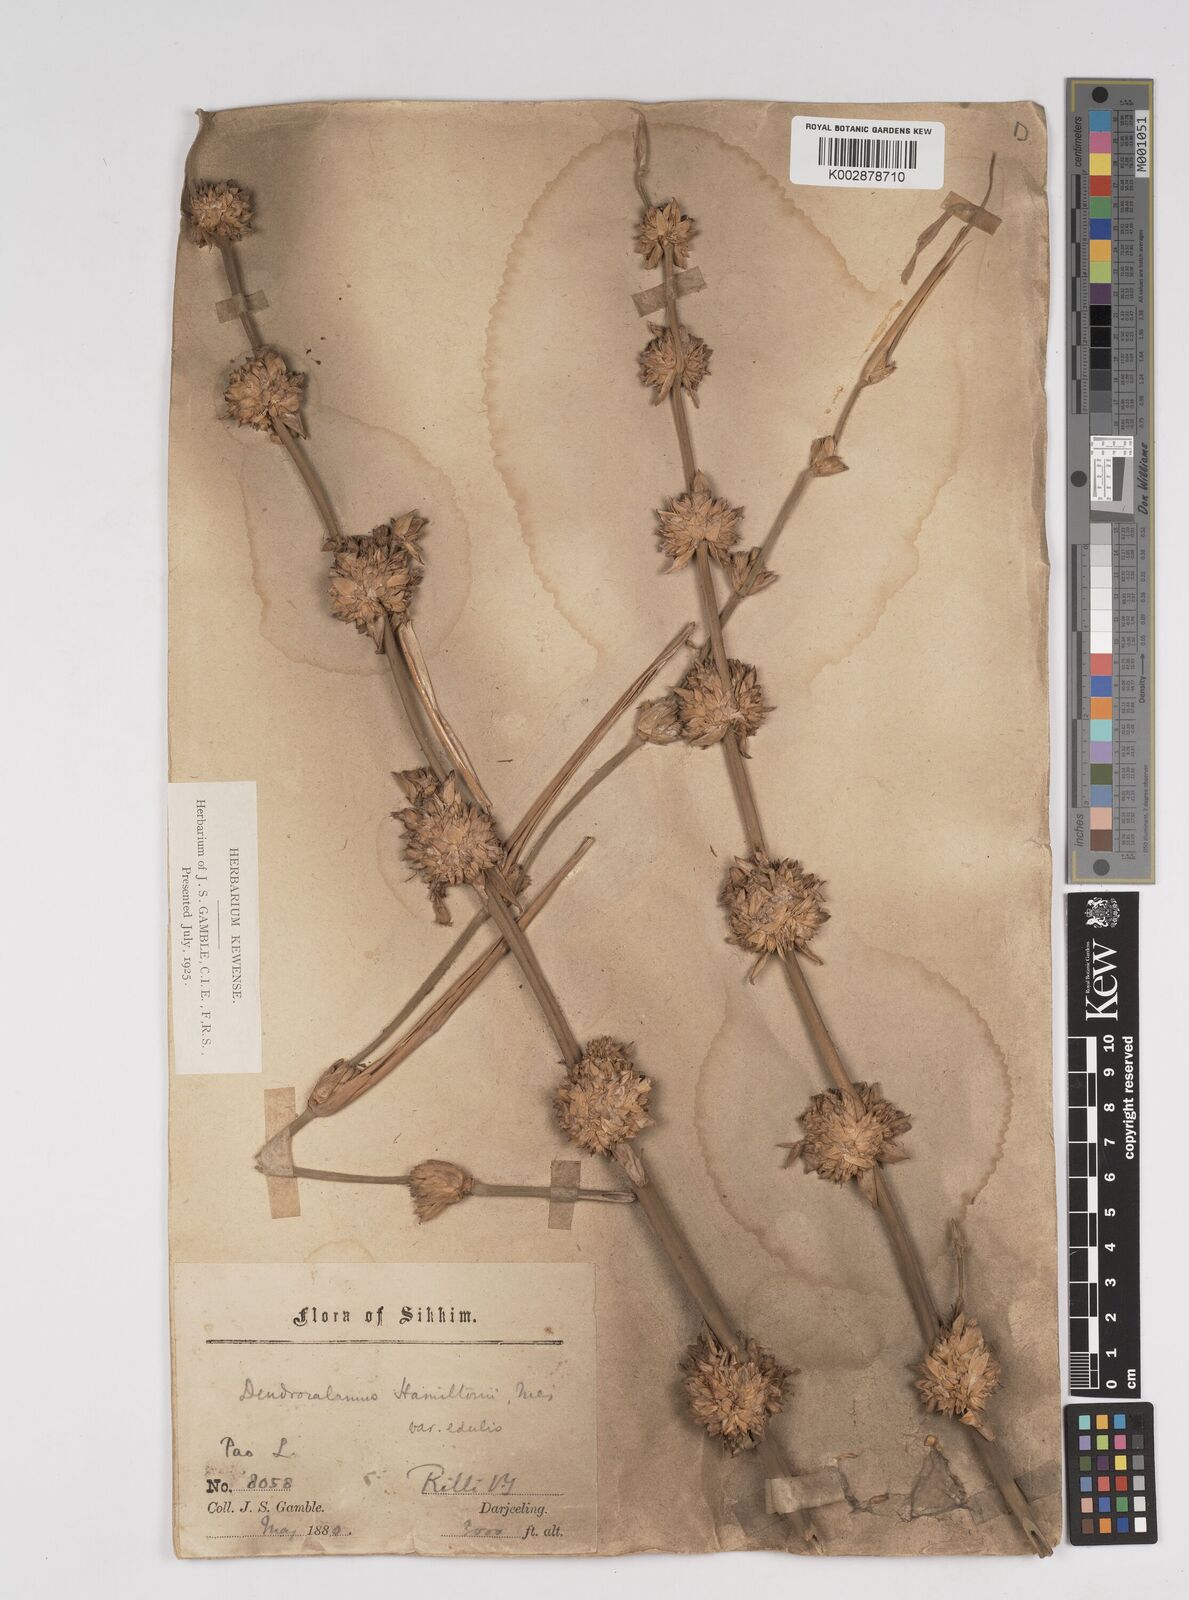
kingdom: Plantae
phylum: Tracheophyta
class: Liliopsida
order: Poales
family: Poaceae
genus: Dendrocalamus
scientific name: Dendrocalamus hamiltonii
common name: Tama bamboo
